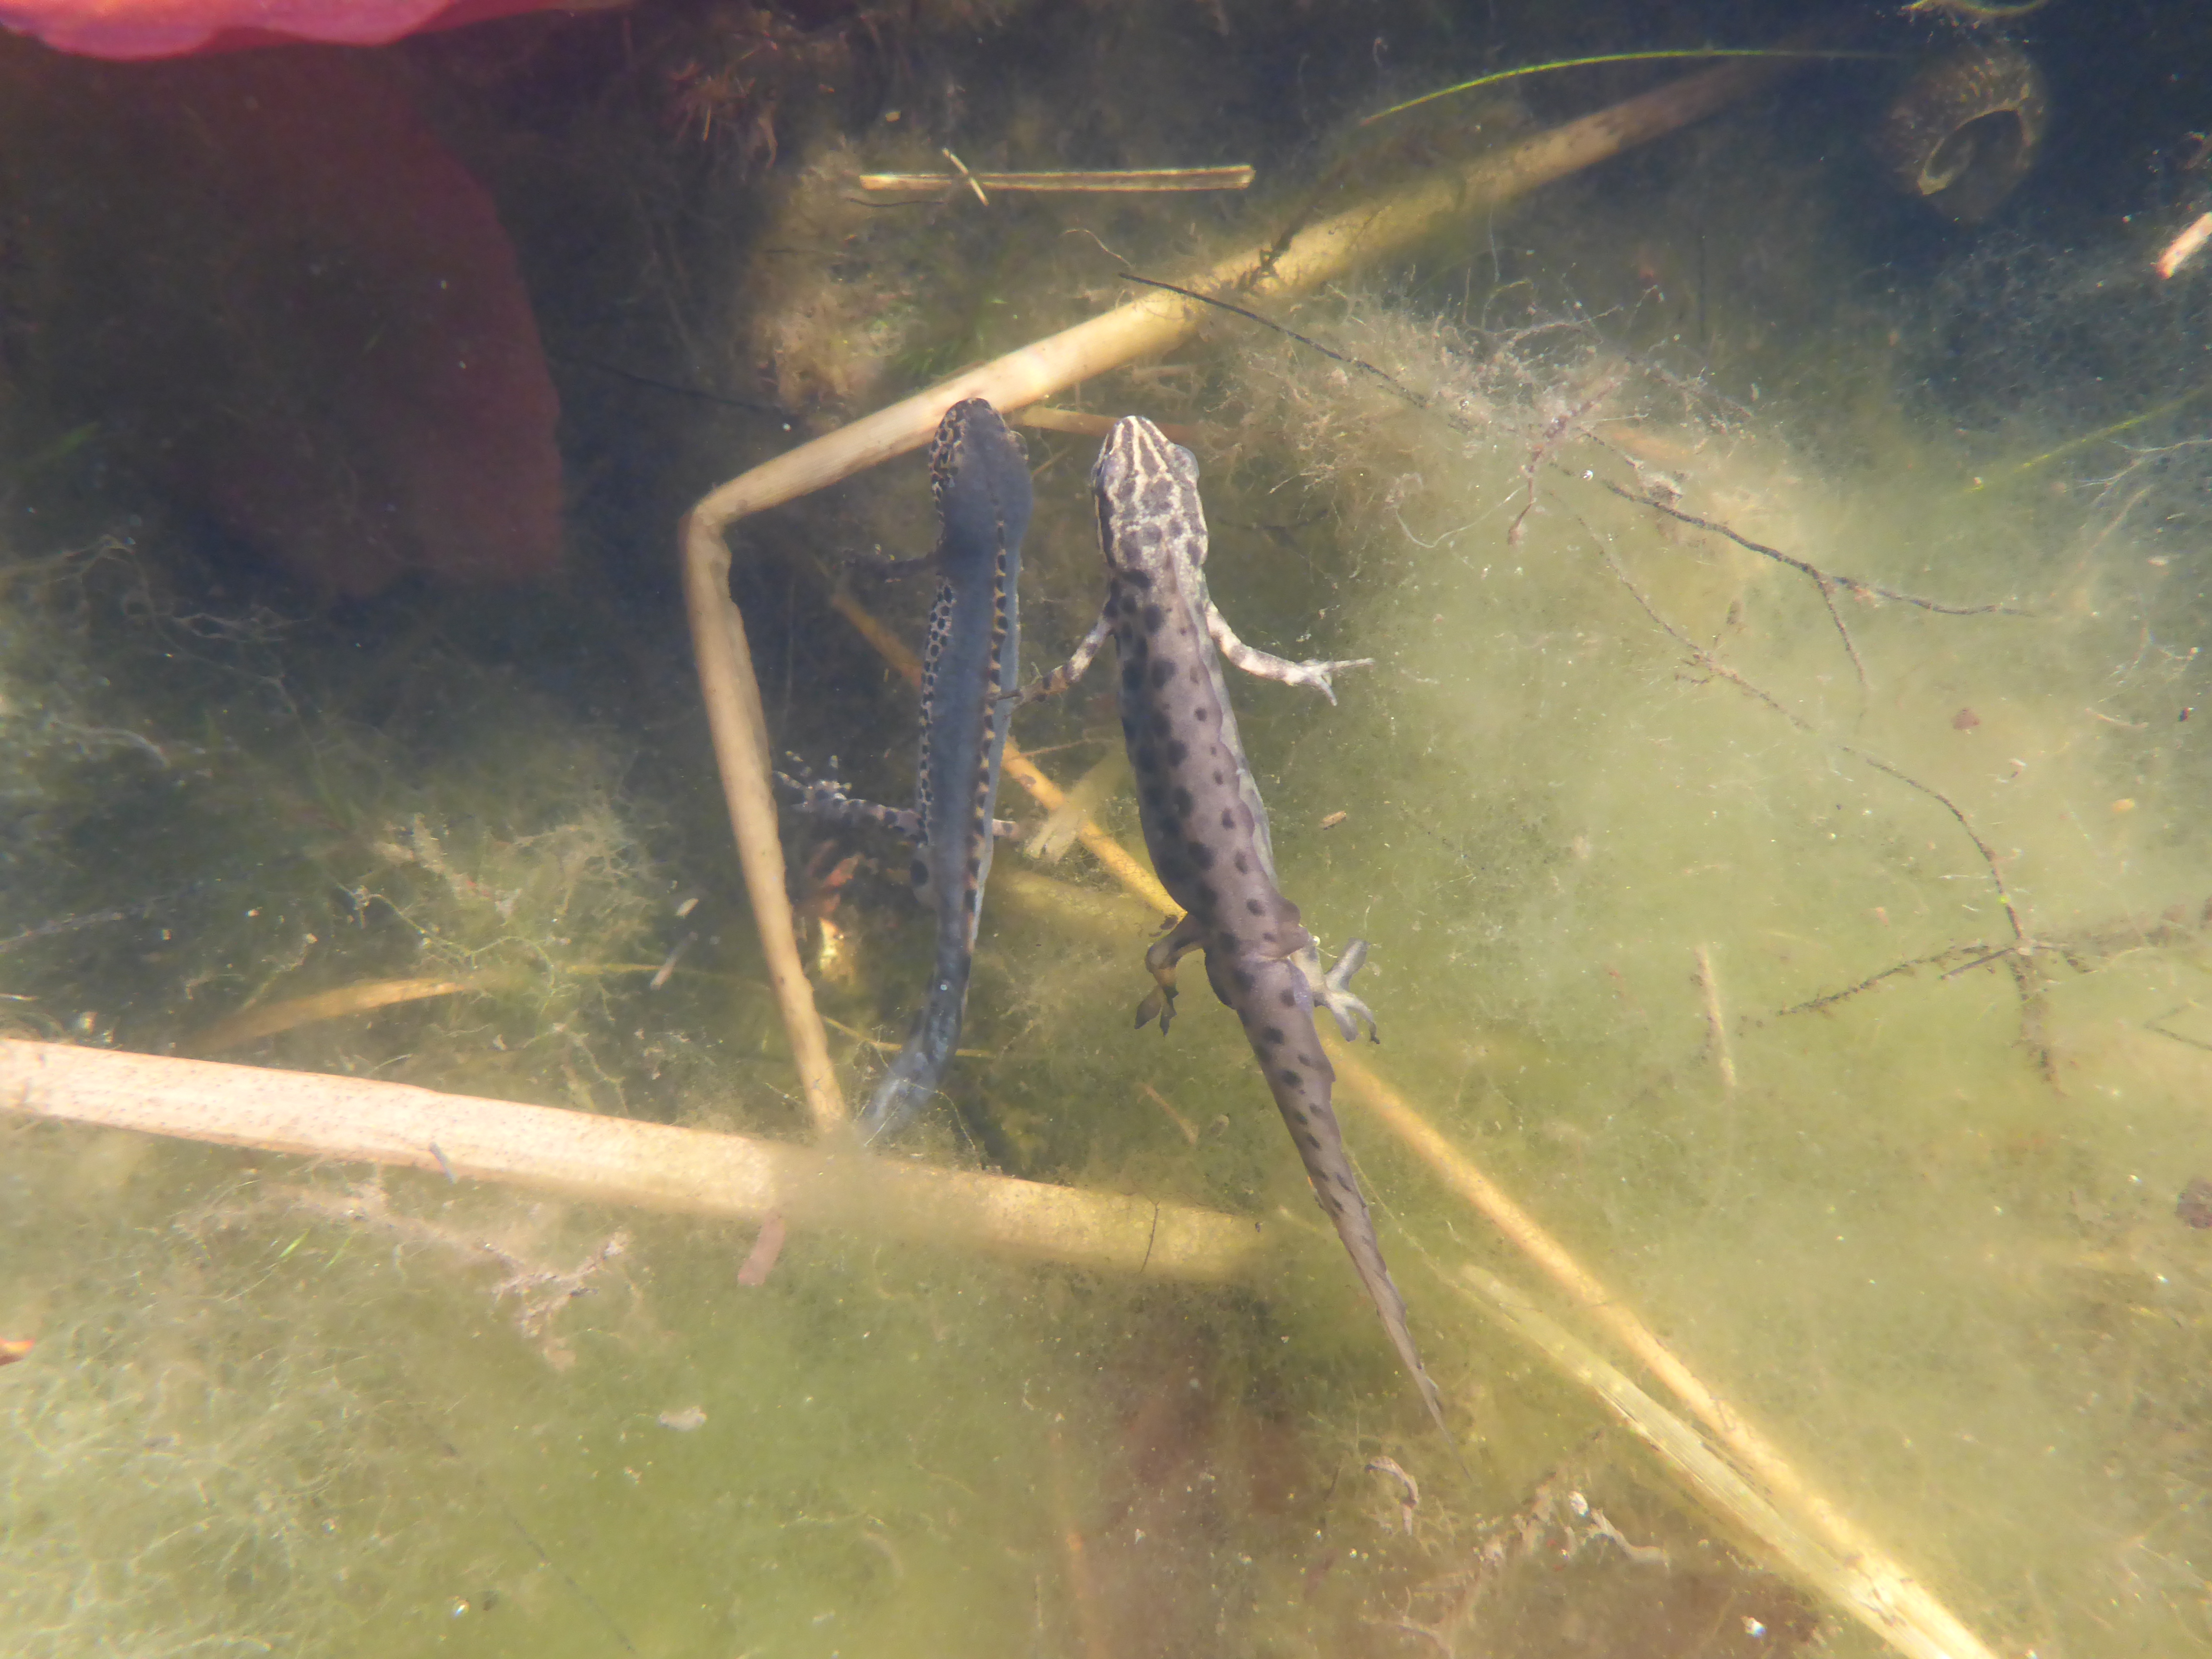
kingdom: Animalia
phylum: Chordata
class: Amphibia
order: Caudata
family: Salamandridae
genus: Lissotriton
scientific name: Lissotriton vulgaris
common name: Smooth newt
